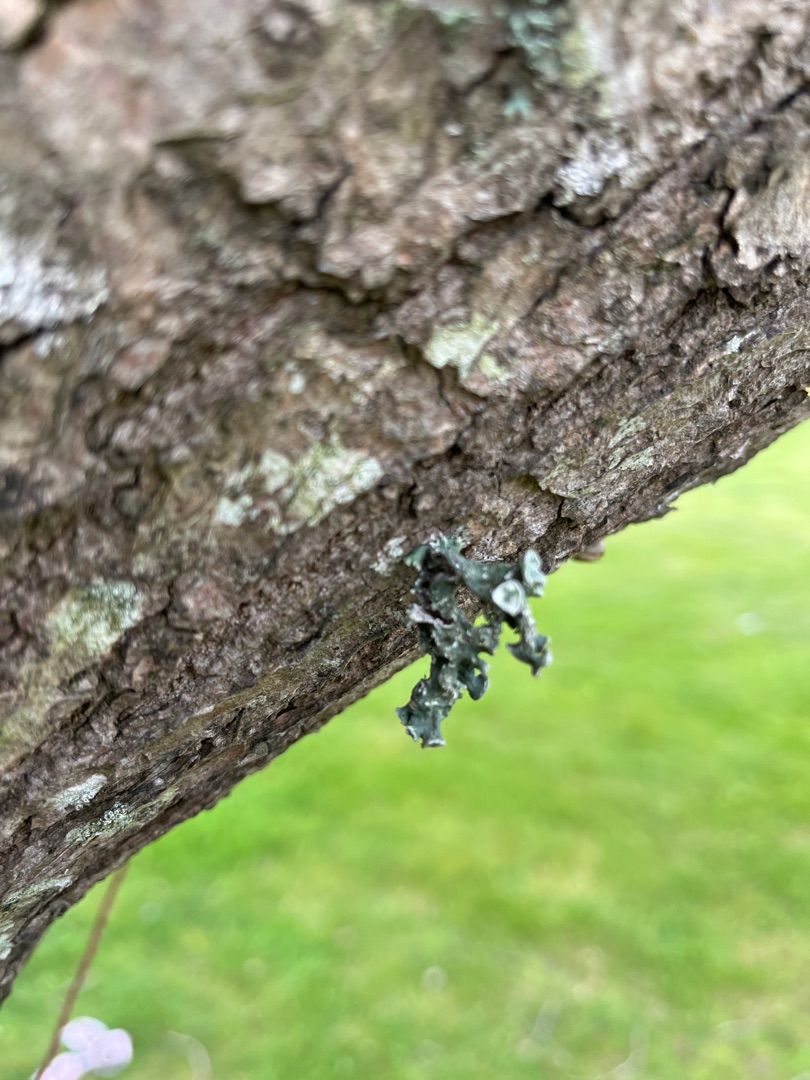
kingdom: Fungi
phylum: Ascomycota
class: Lecanoromycetes
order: Lecanorales
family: Ramalinaceae
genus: Ramalina
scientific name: Ramalina fastigiata
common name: Tue-grenlav
